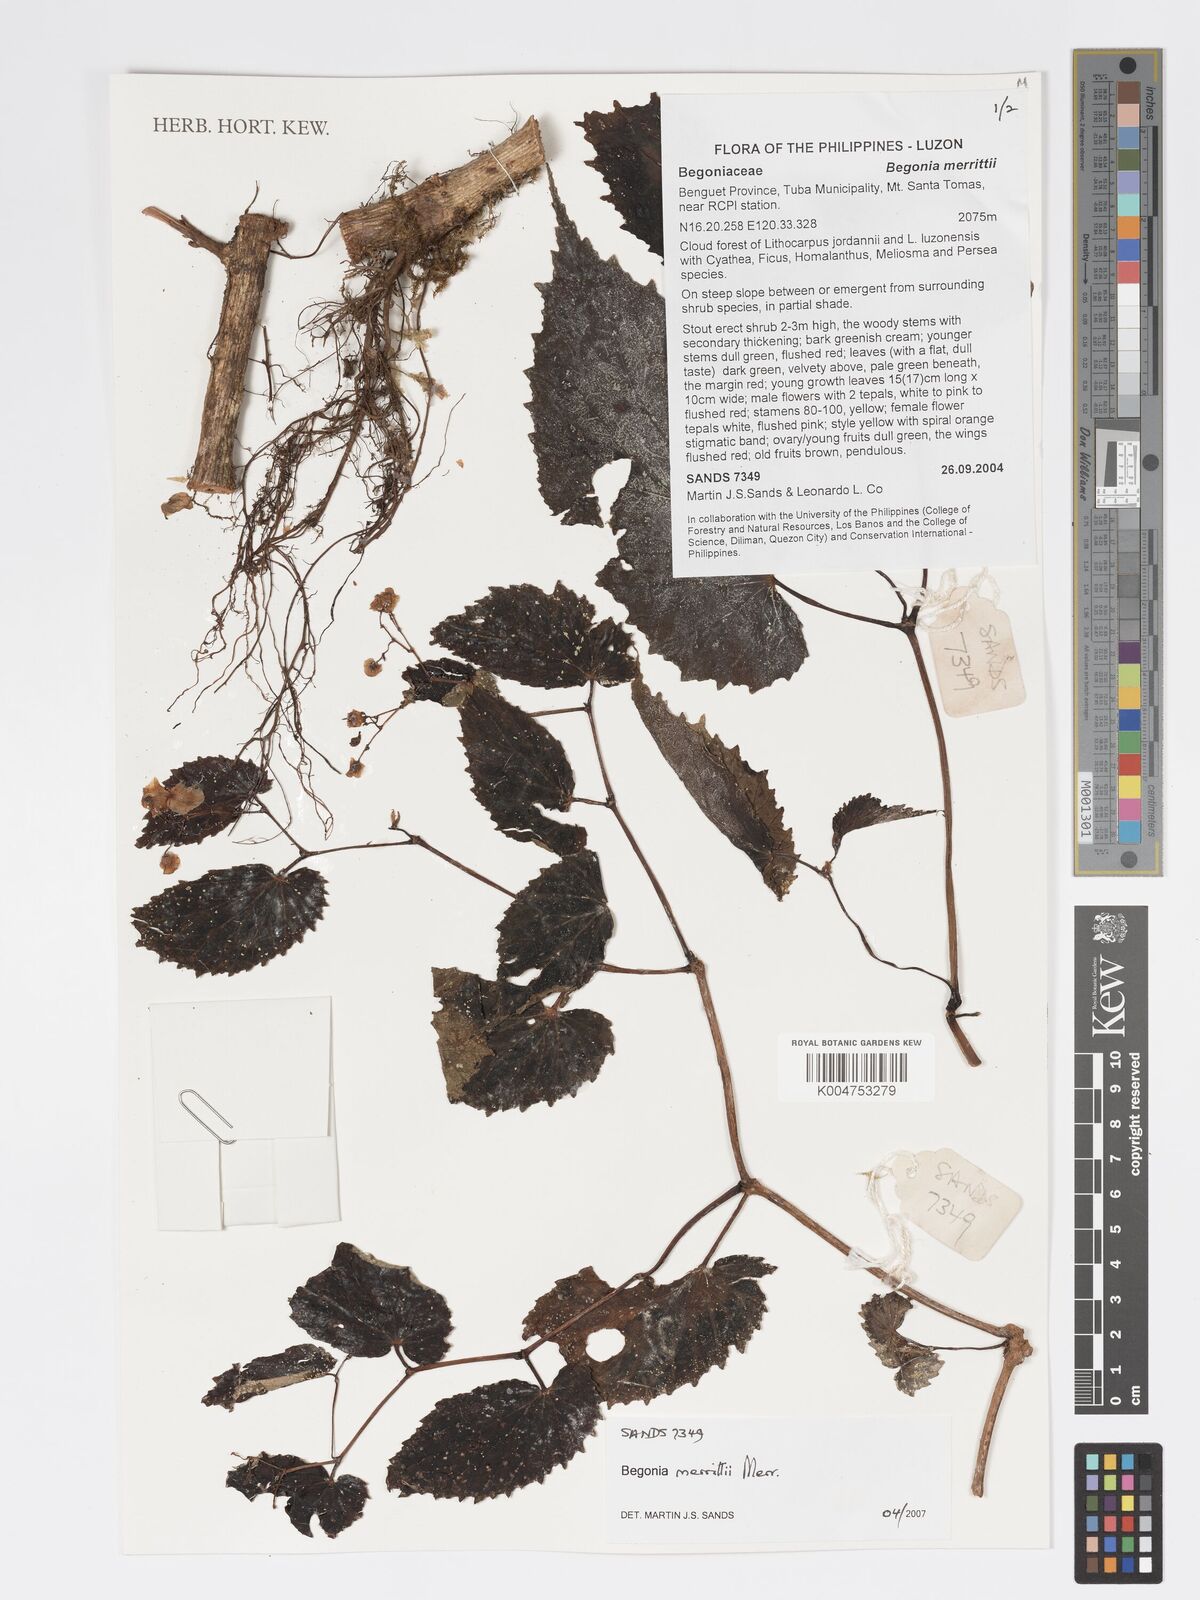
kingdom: Plantae
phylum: Tracheophyta
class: Magnoliopsida
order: Cucurbitales
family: Begoniaceae
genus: Begonia
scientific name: Begonia merrittii
